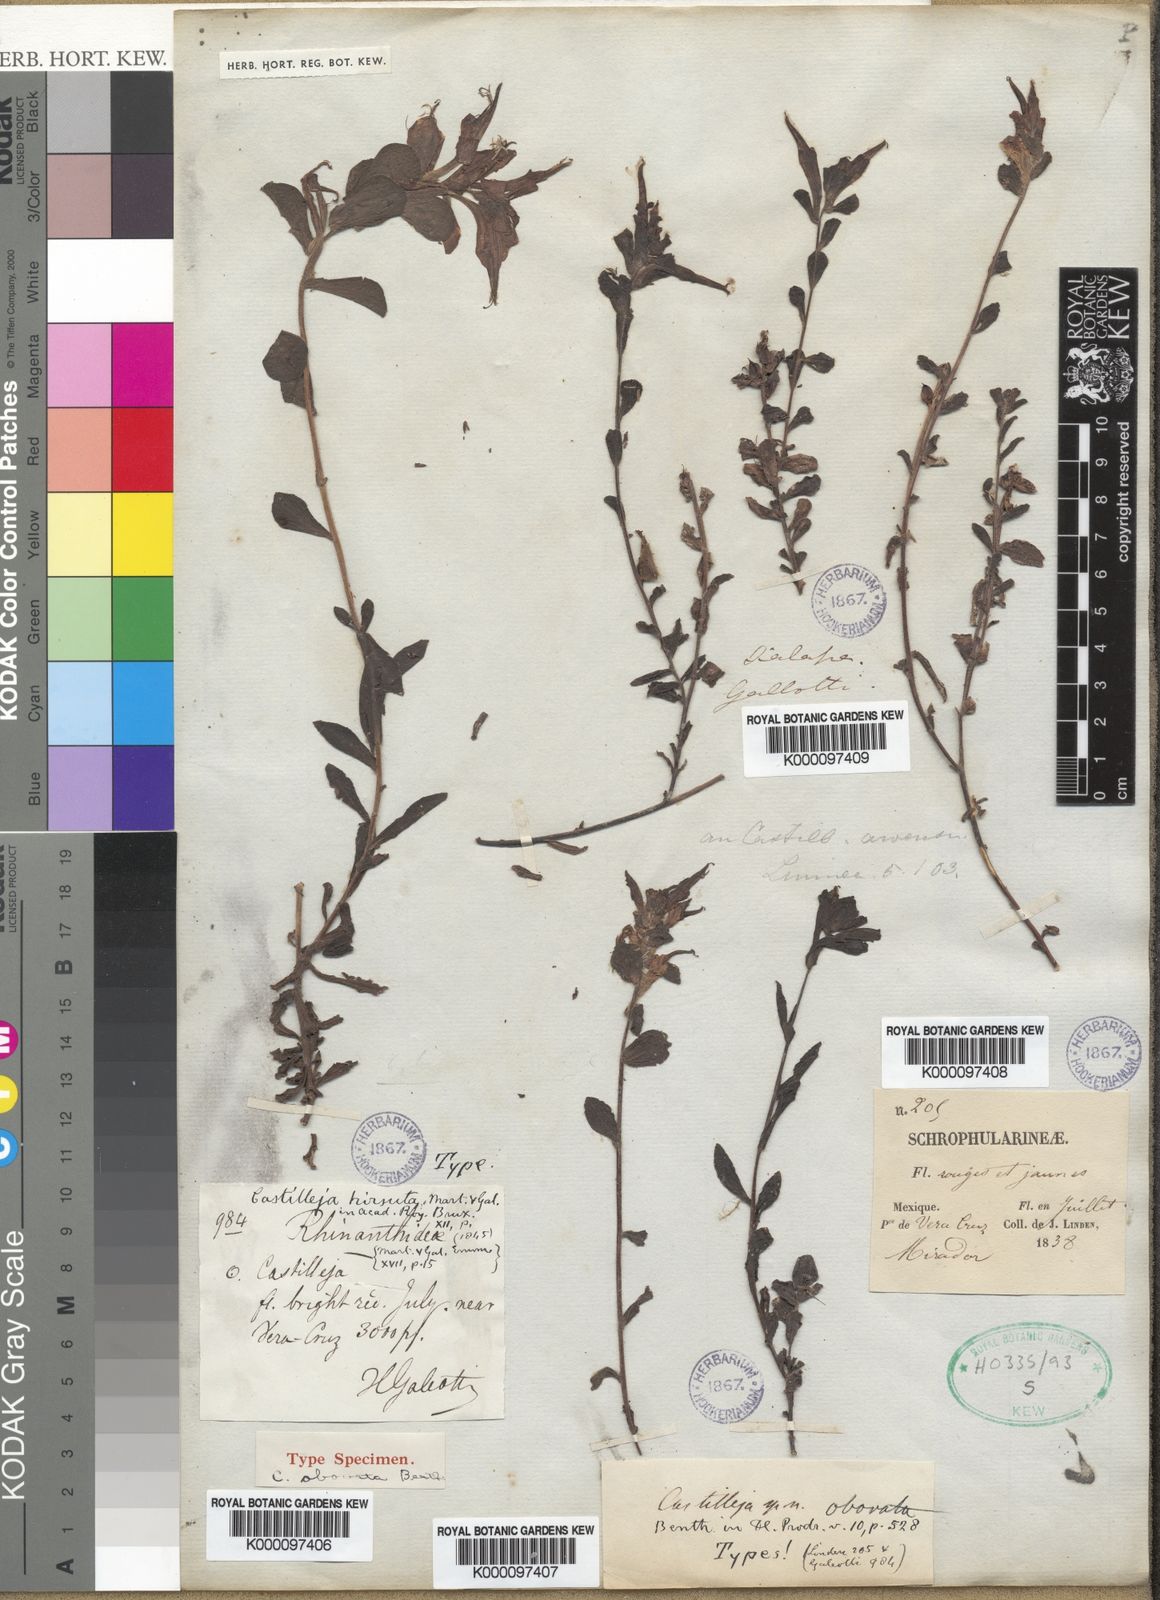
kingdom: Plantae
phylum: Tracheophyta
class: Magnoliopsida
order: Lamiales
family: Orobanchaceae
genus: Castilleja
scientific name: Castilleja hirsuta
